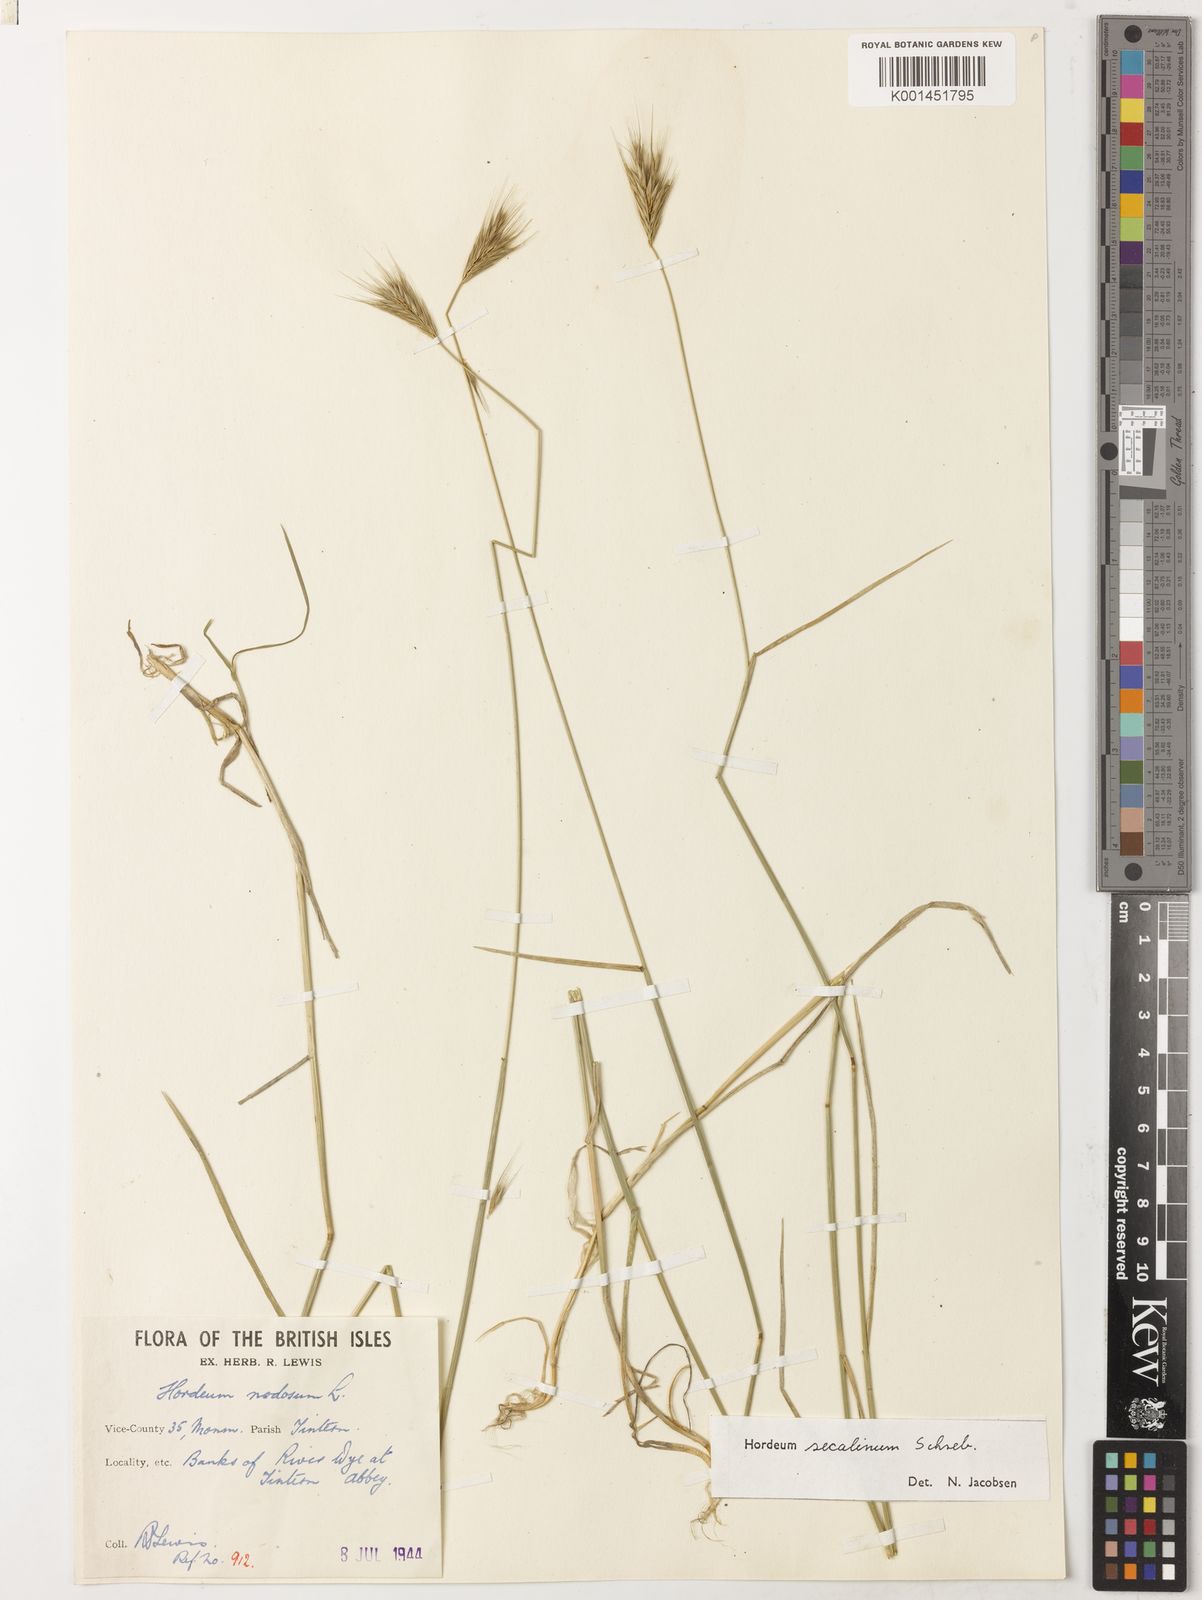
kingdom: Plantae
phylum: Tracheophyta
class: Liliopsida
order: Poales
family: Poaceae
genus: Hordeum
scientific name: Hordeum secalinum
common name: Meadow barley
